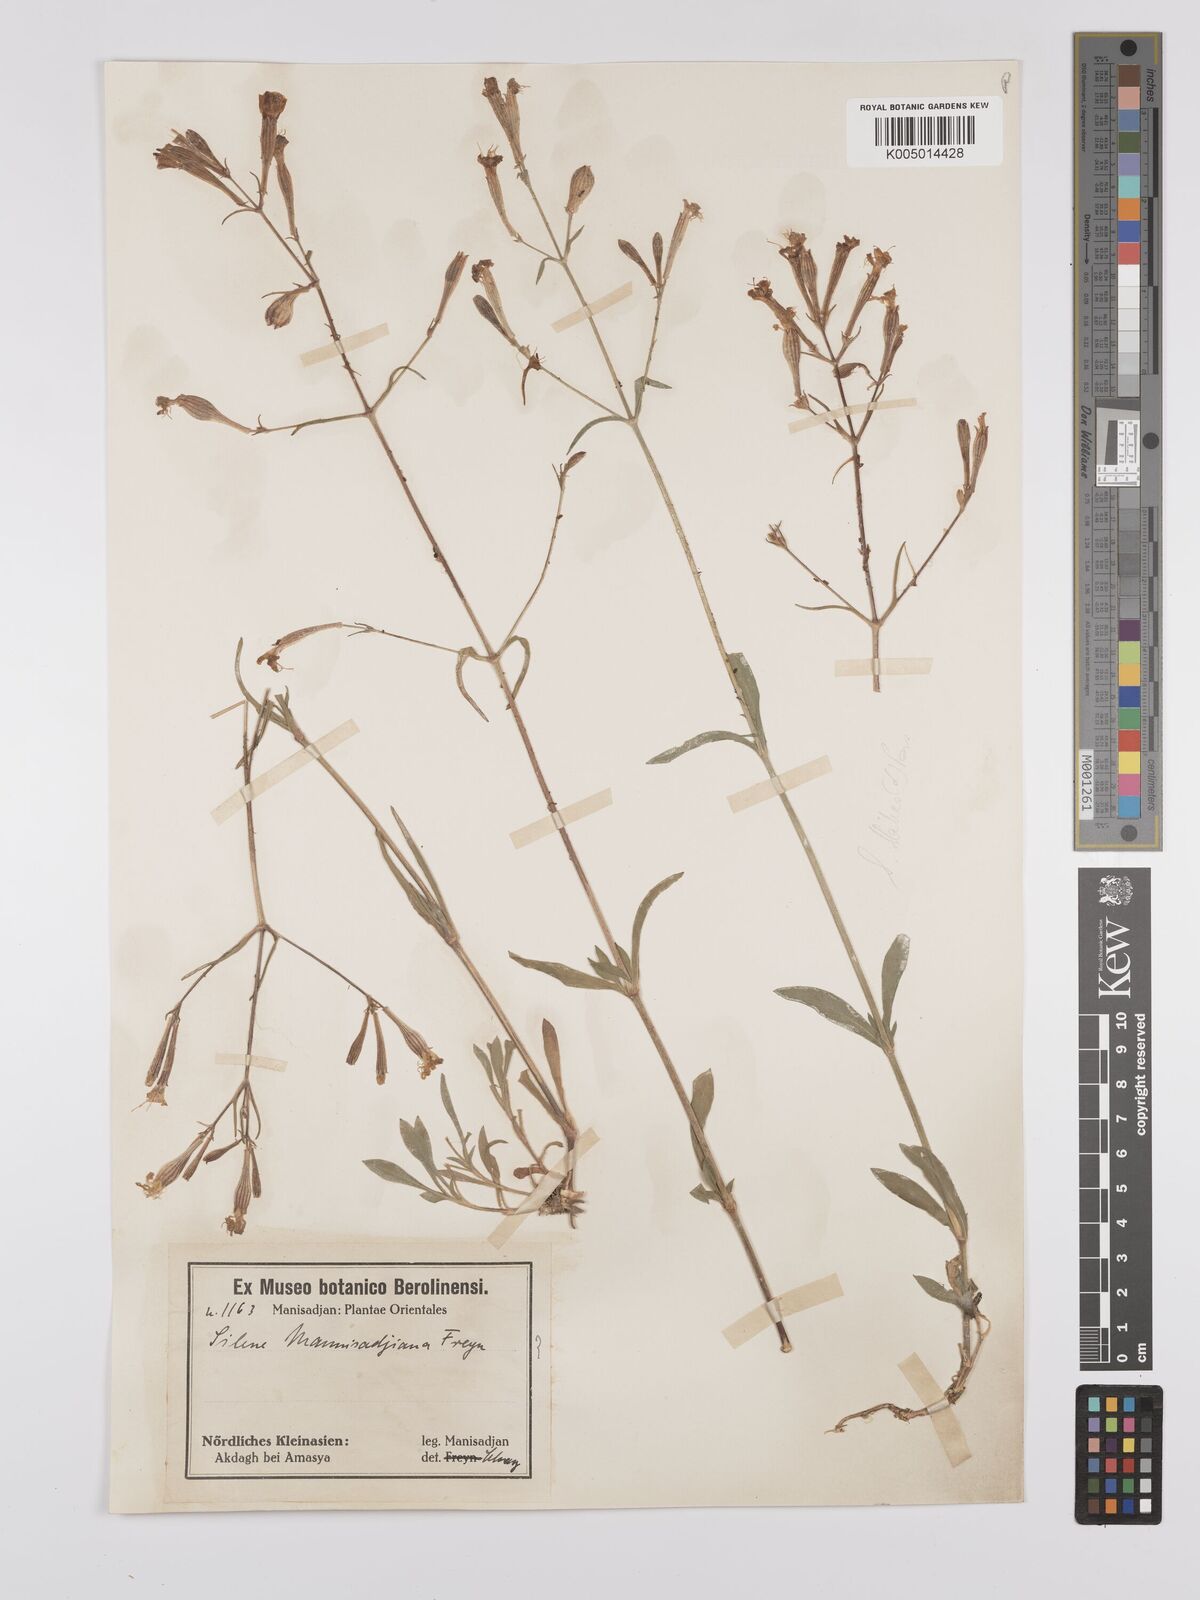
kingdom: Plantae
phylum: Tracheophyta
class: Magnoliopsida
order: Caryophyllales
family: Caryophyllaceae
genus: Silene
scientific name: Silene
